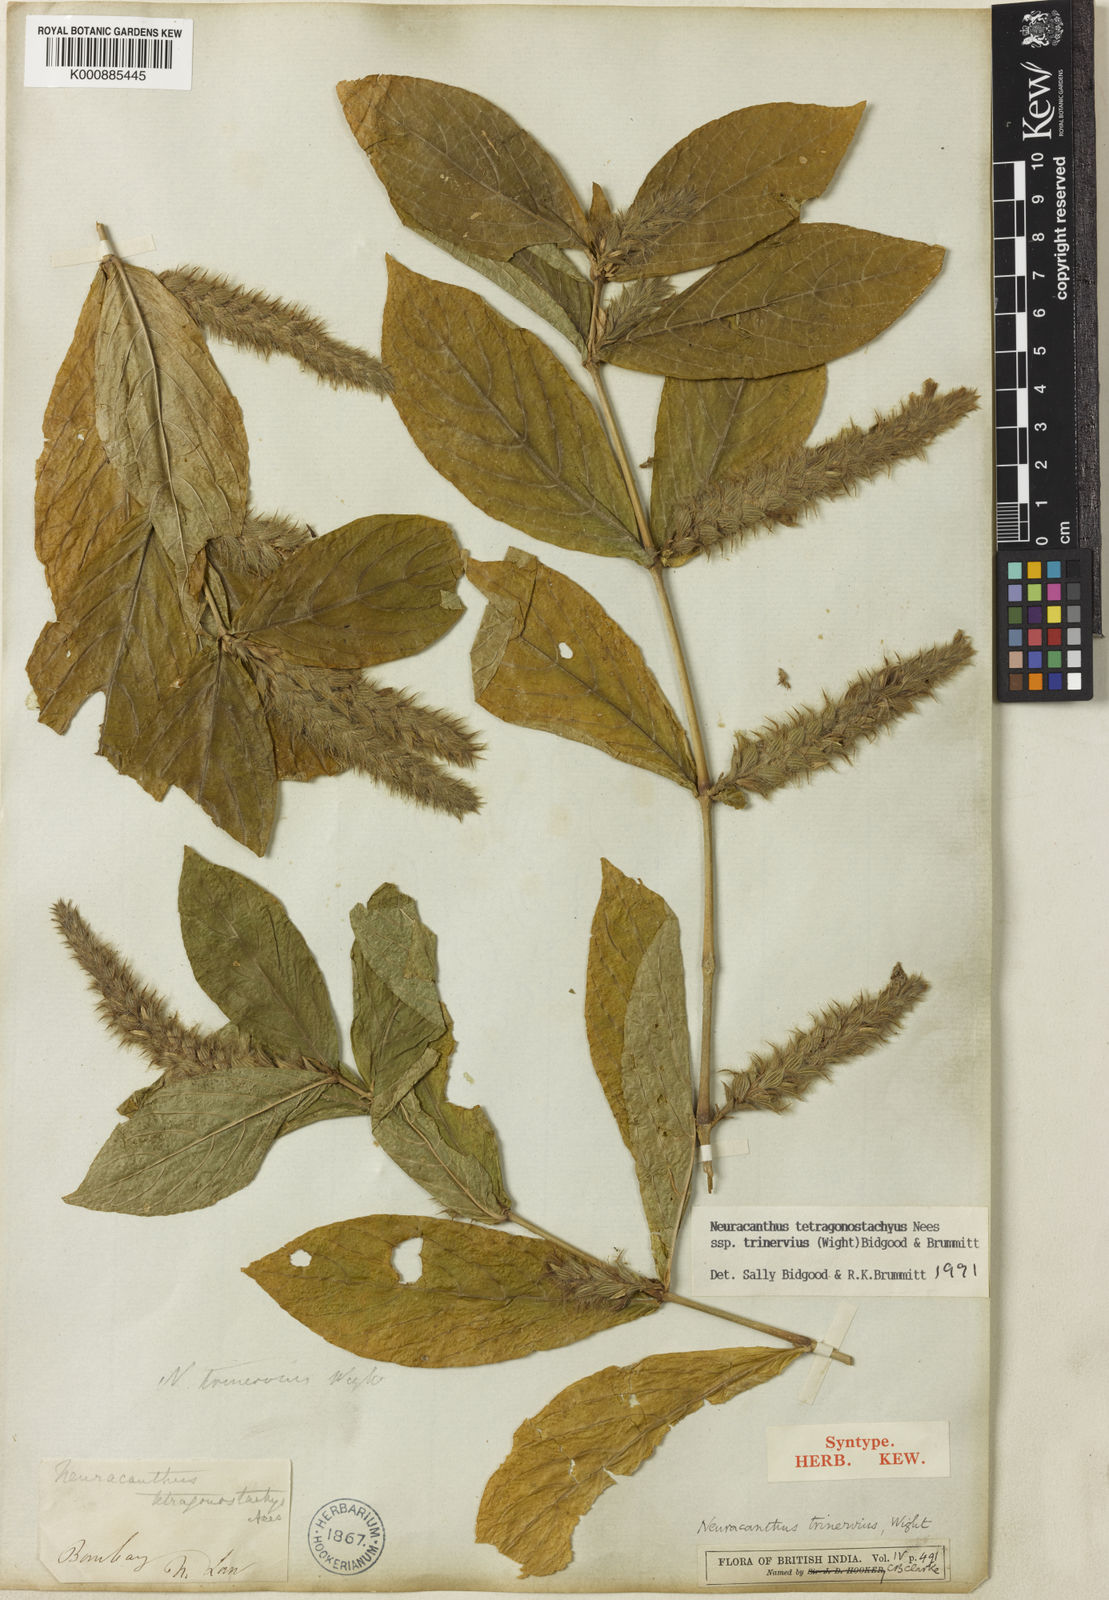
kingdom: Plantae
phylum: Tracheophyta
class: Magnoliopsida
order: Lamiales
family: Acanthaceae
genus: Neuracanthus
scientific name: Neuracanthus tetragonostachyus
